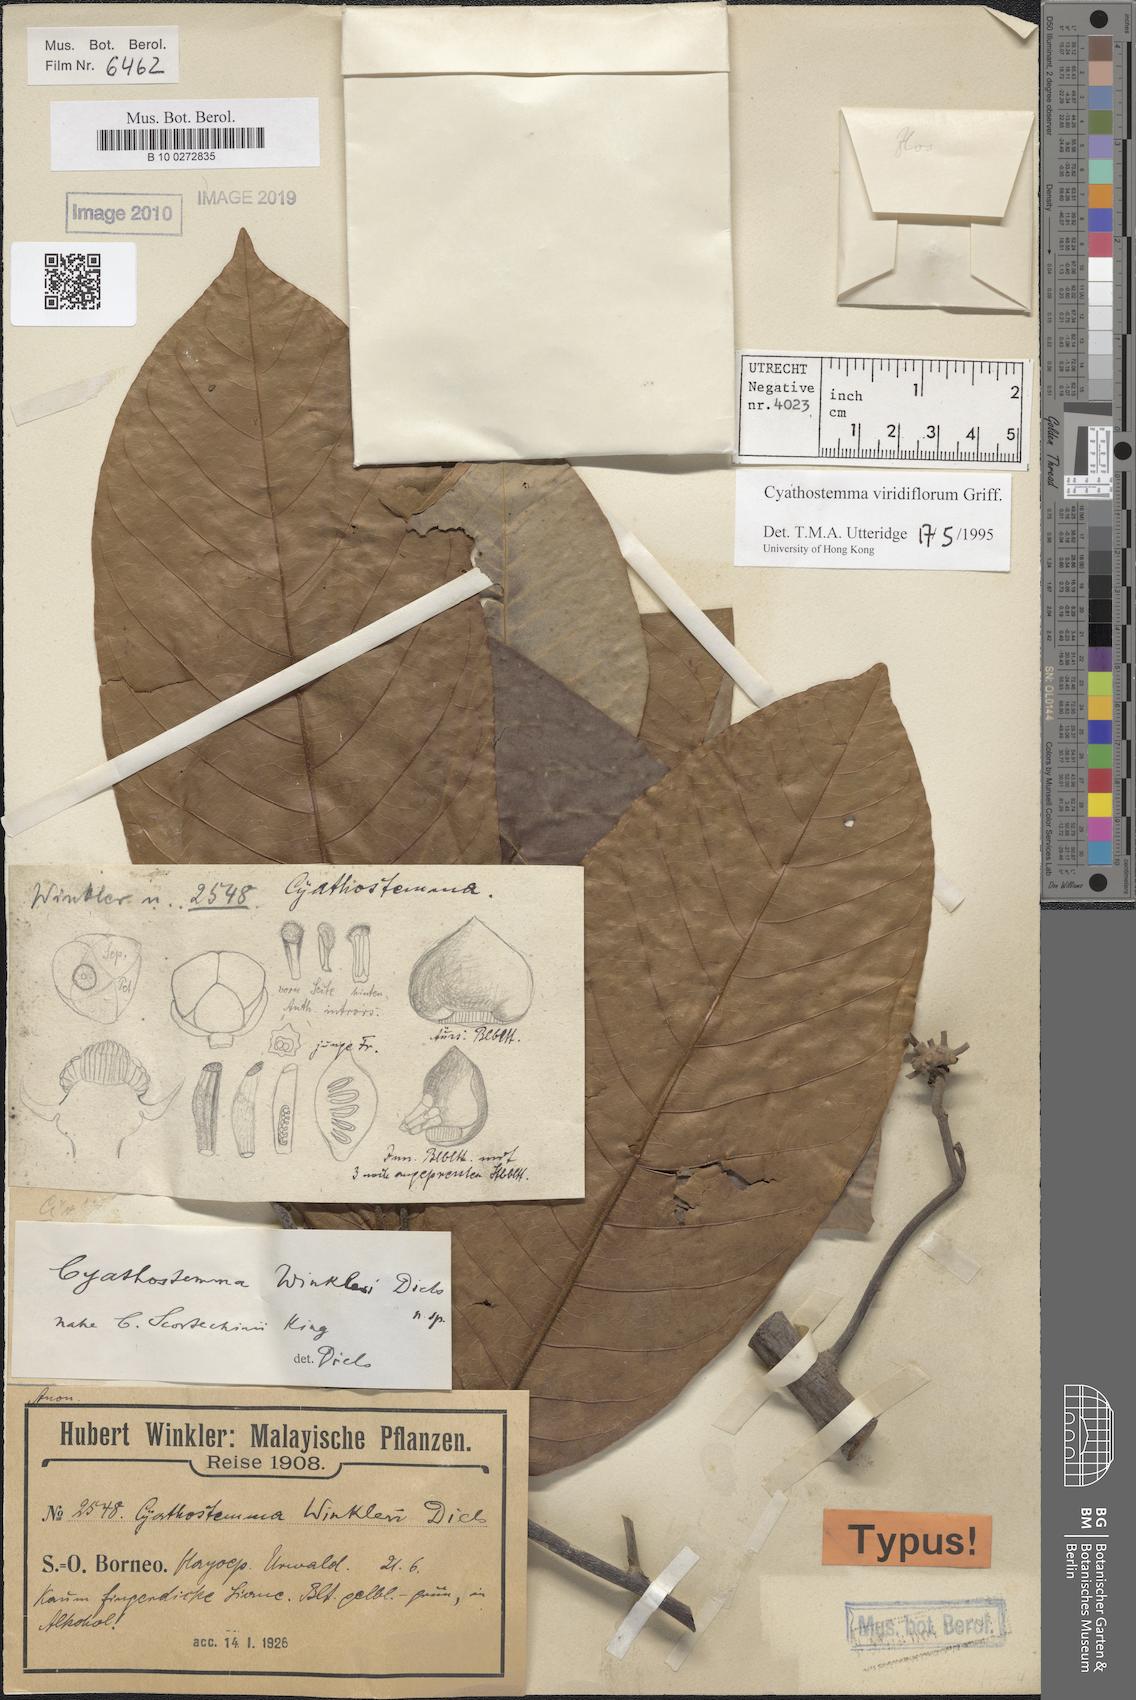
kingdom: Plantae
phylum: Tracheophyta
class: Magnoliopsida
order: Magnoliales
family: Annonaceae
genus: Uvaria
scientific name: Uvaria griffithii
